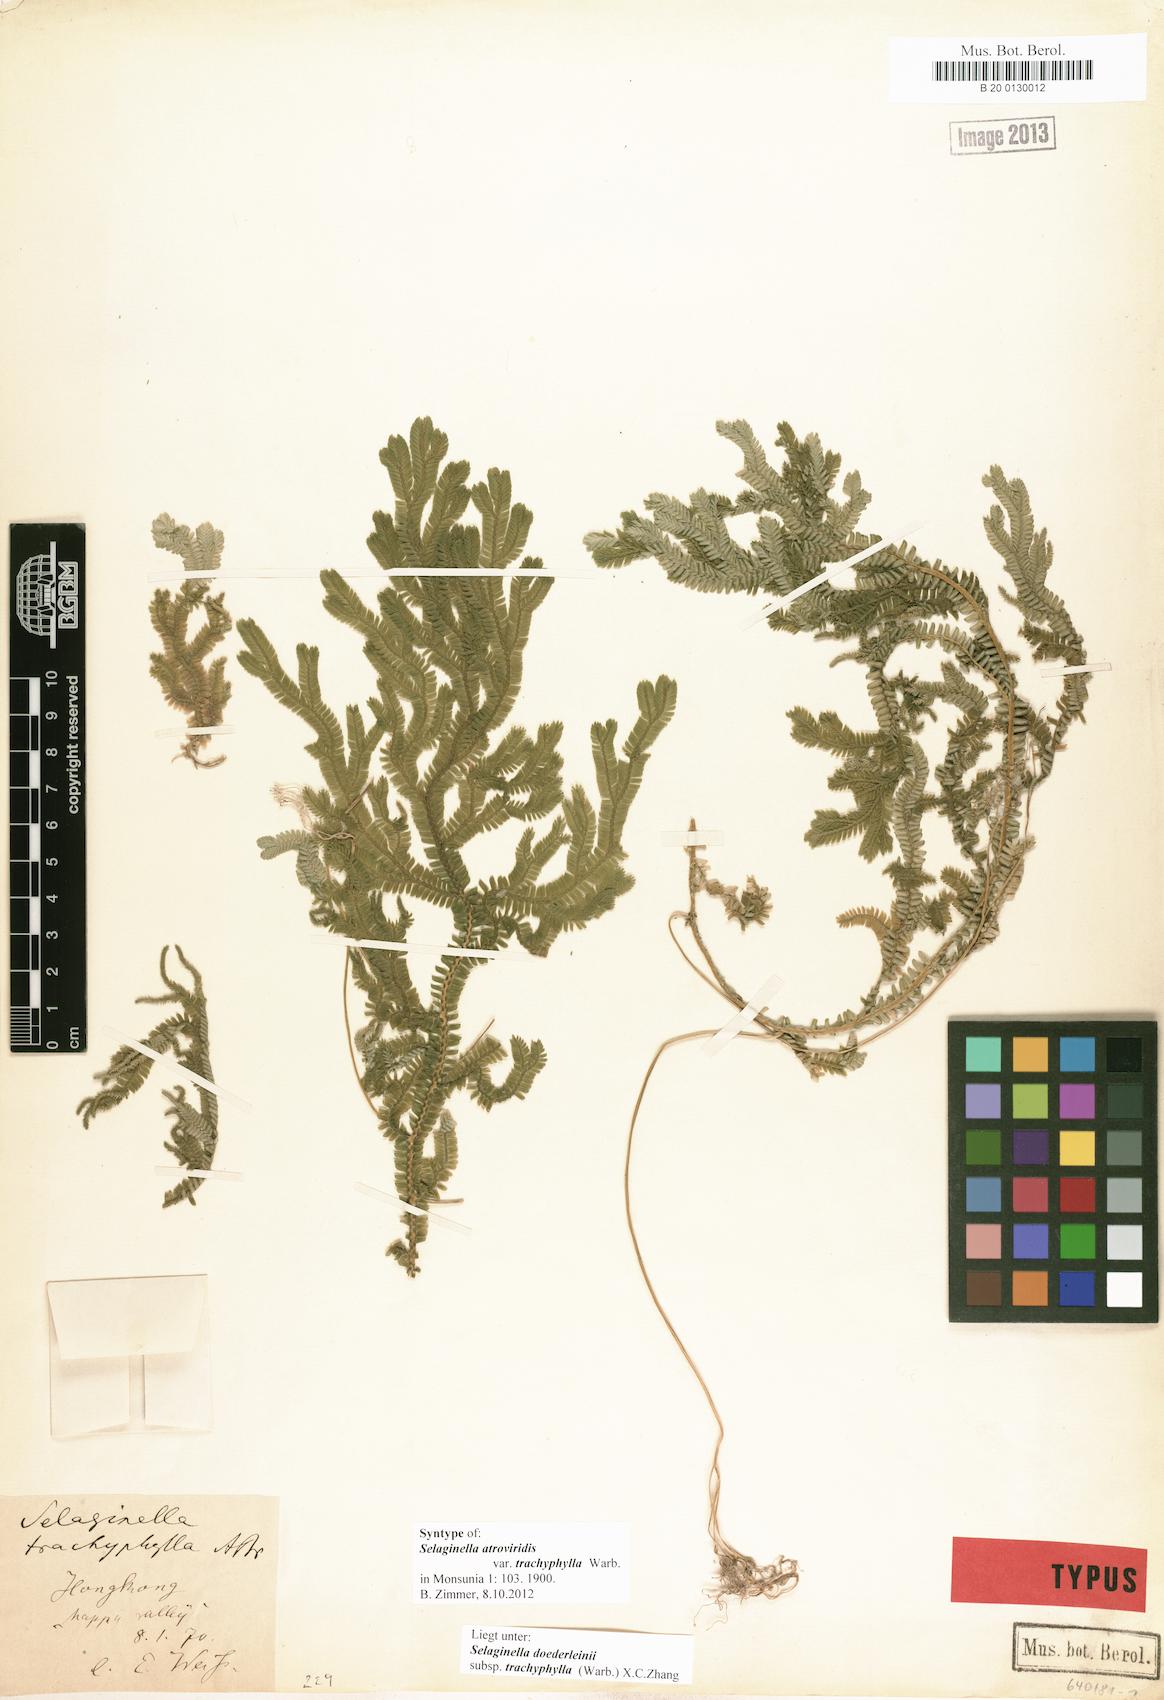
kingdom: Plantae
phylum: Tracheophyta
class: Lycopodiopsida
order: Selaginellales
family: Selaginellaceae
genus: Selaginella
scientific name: Selaginella trachyphylla
